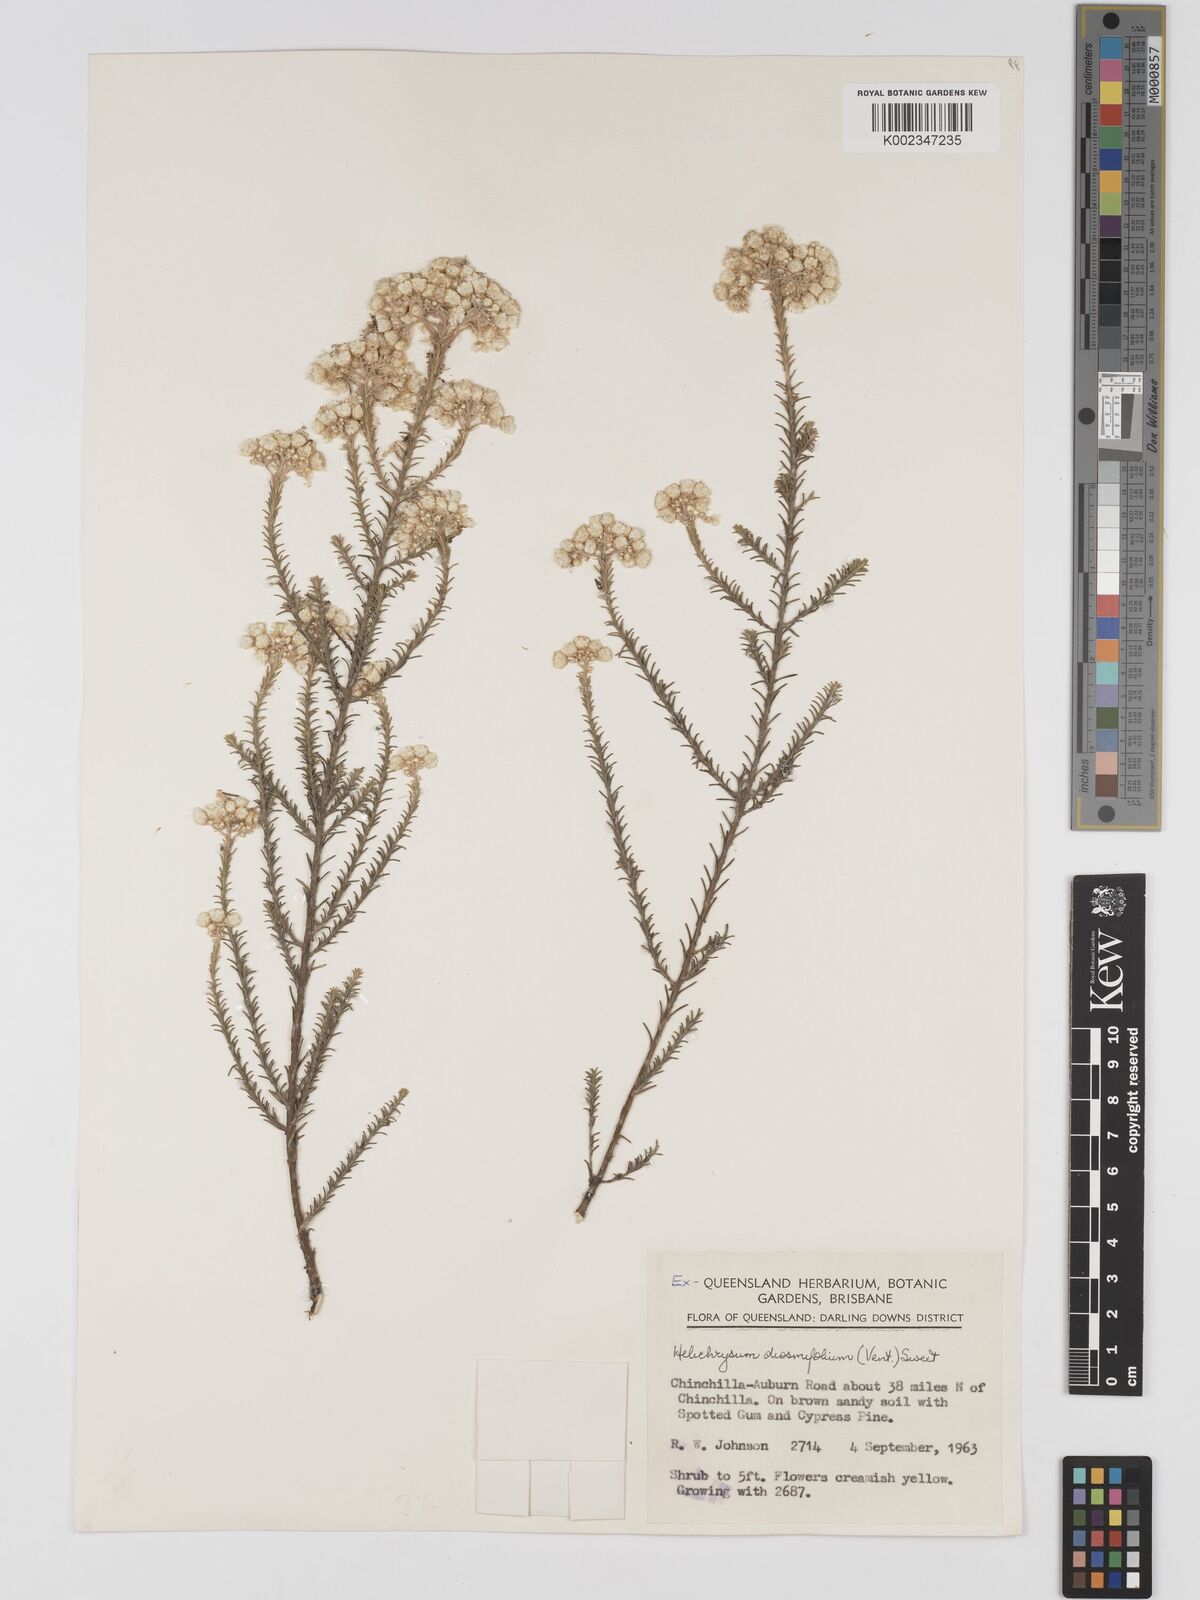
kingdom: Plantae
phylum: Tracheophyta
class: Magnoliopsida
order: Asterales
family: Asteraceae
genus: Ozothamnus
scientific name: Ozothamnus diosmifolius
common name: White-dogwood
